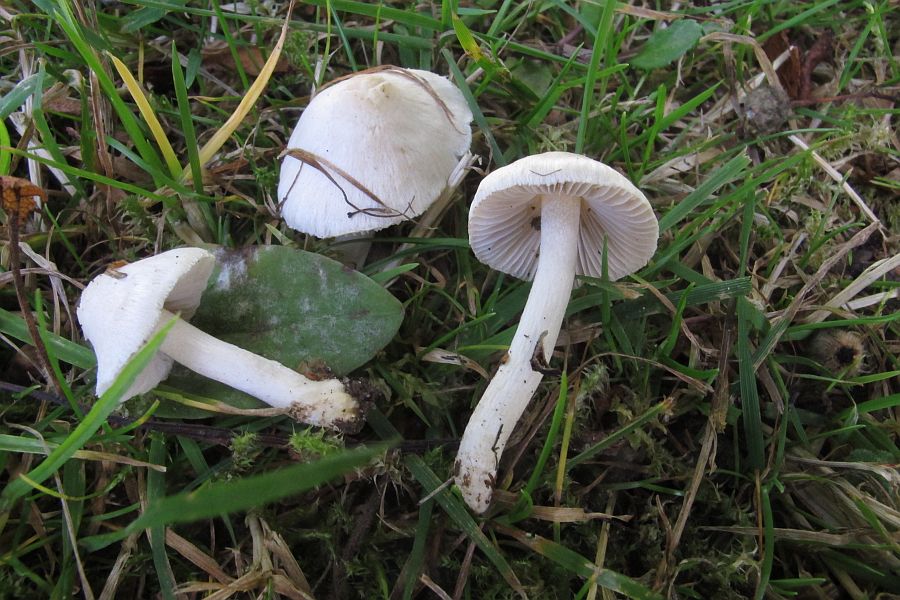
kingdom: Fungi
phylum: Basidiomycota
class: Agaricomycetes
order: Agaricales
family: Inocybaceae
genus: Inocybe
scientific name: Inocybe
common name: almindelig trævlhat
